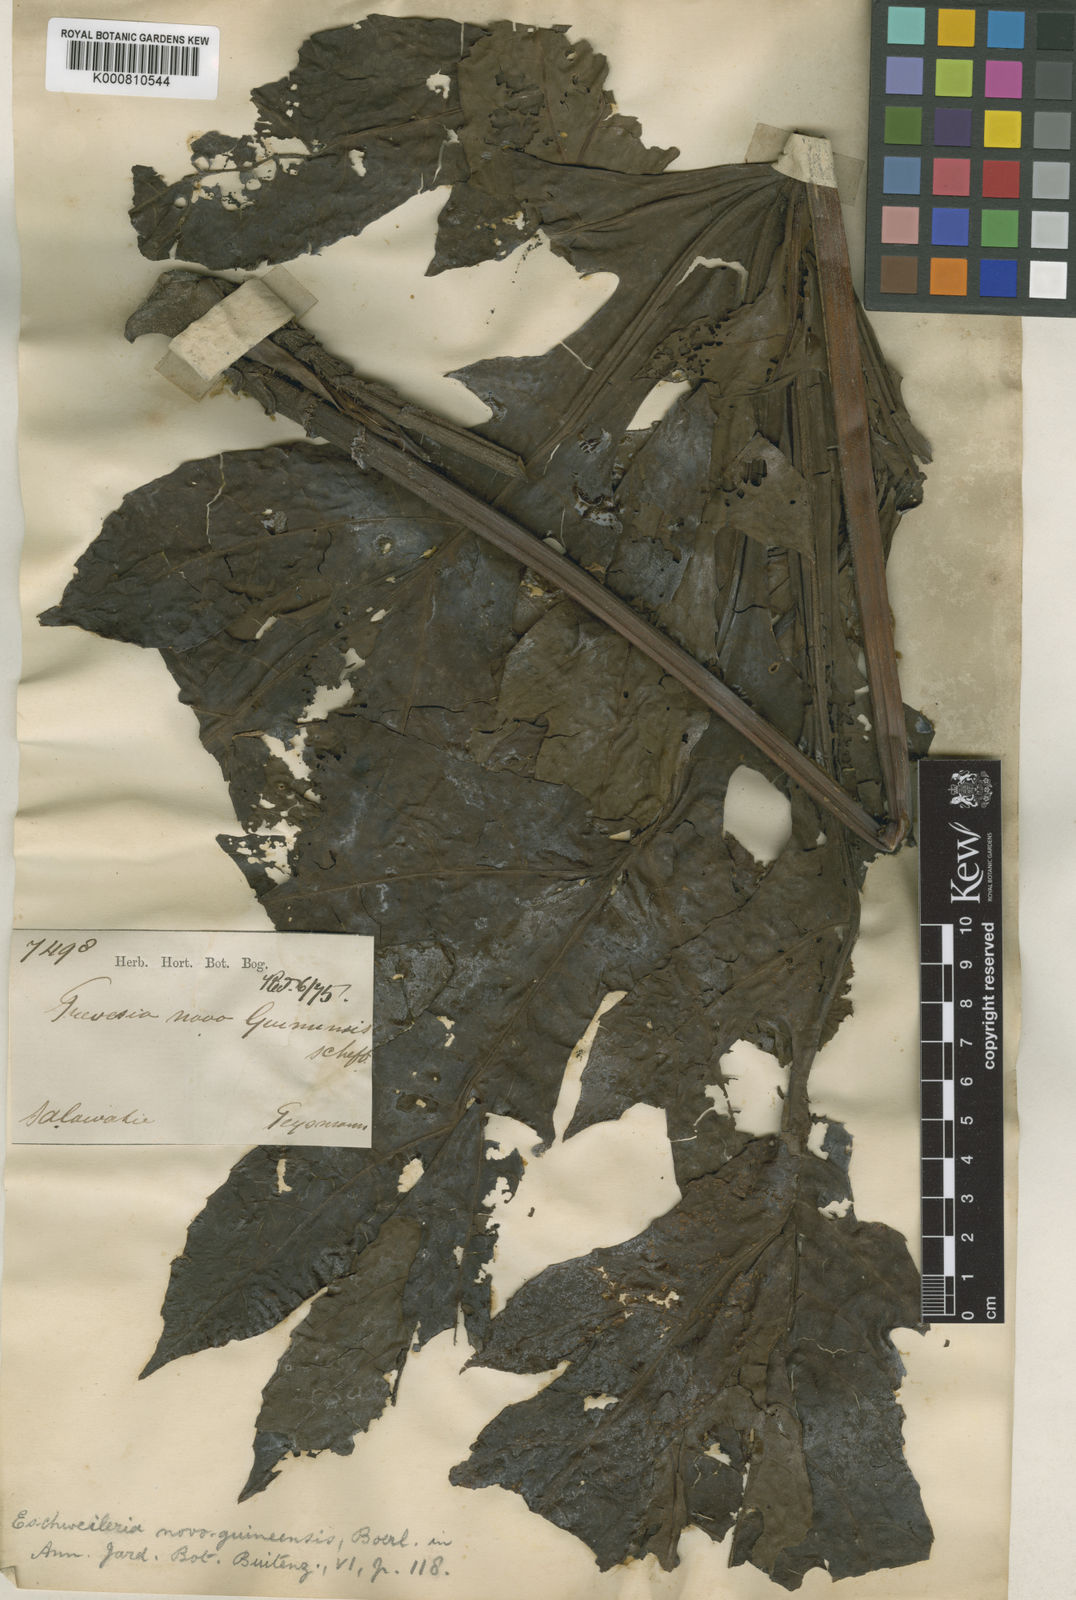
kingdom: Plantae
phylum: Tracheophyta
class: Magnoliopsida
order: Apiales
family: Araliaceae
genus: Osmoxylon
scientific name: Osmoxylon novoguineense
